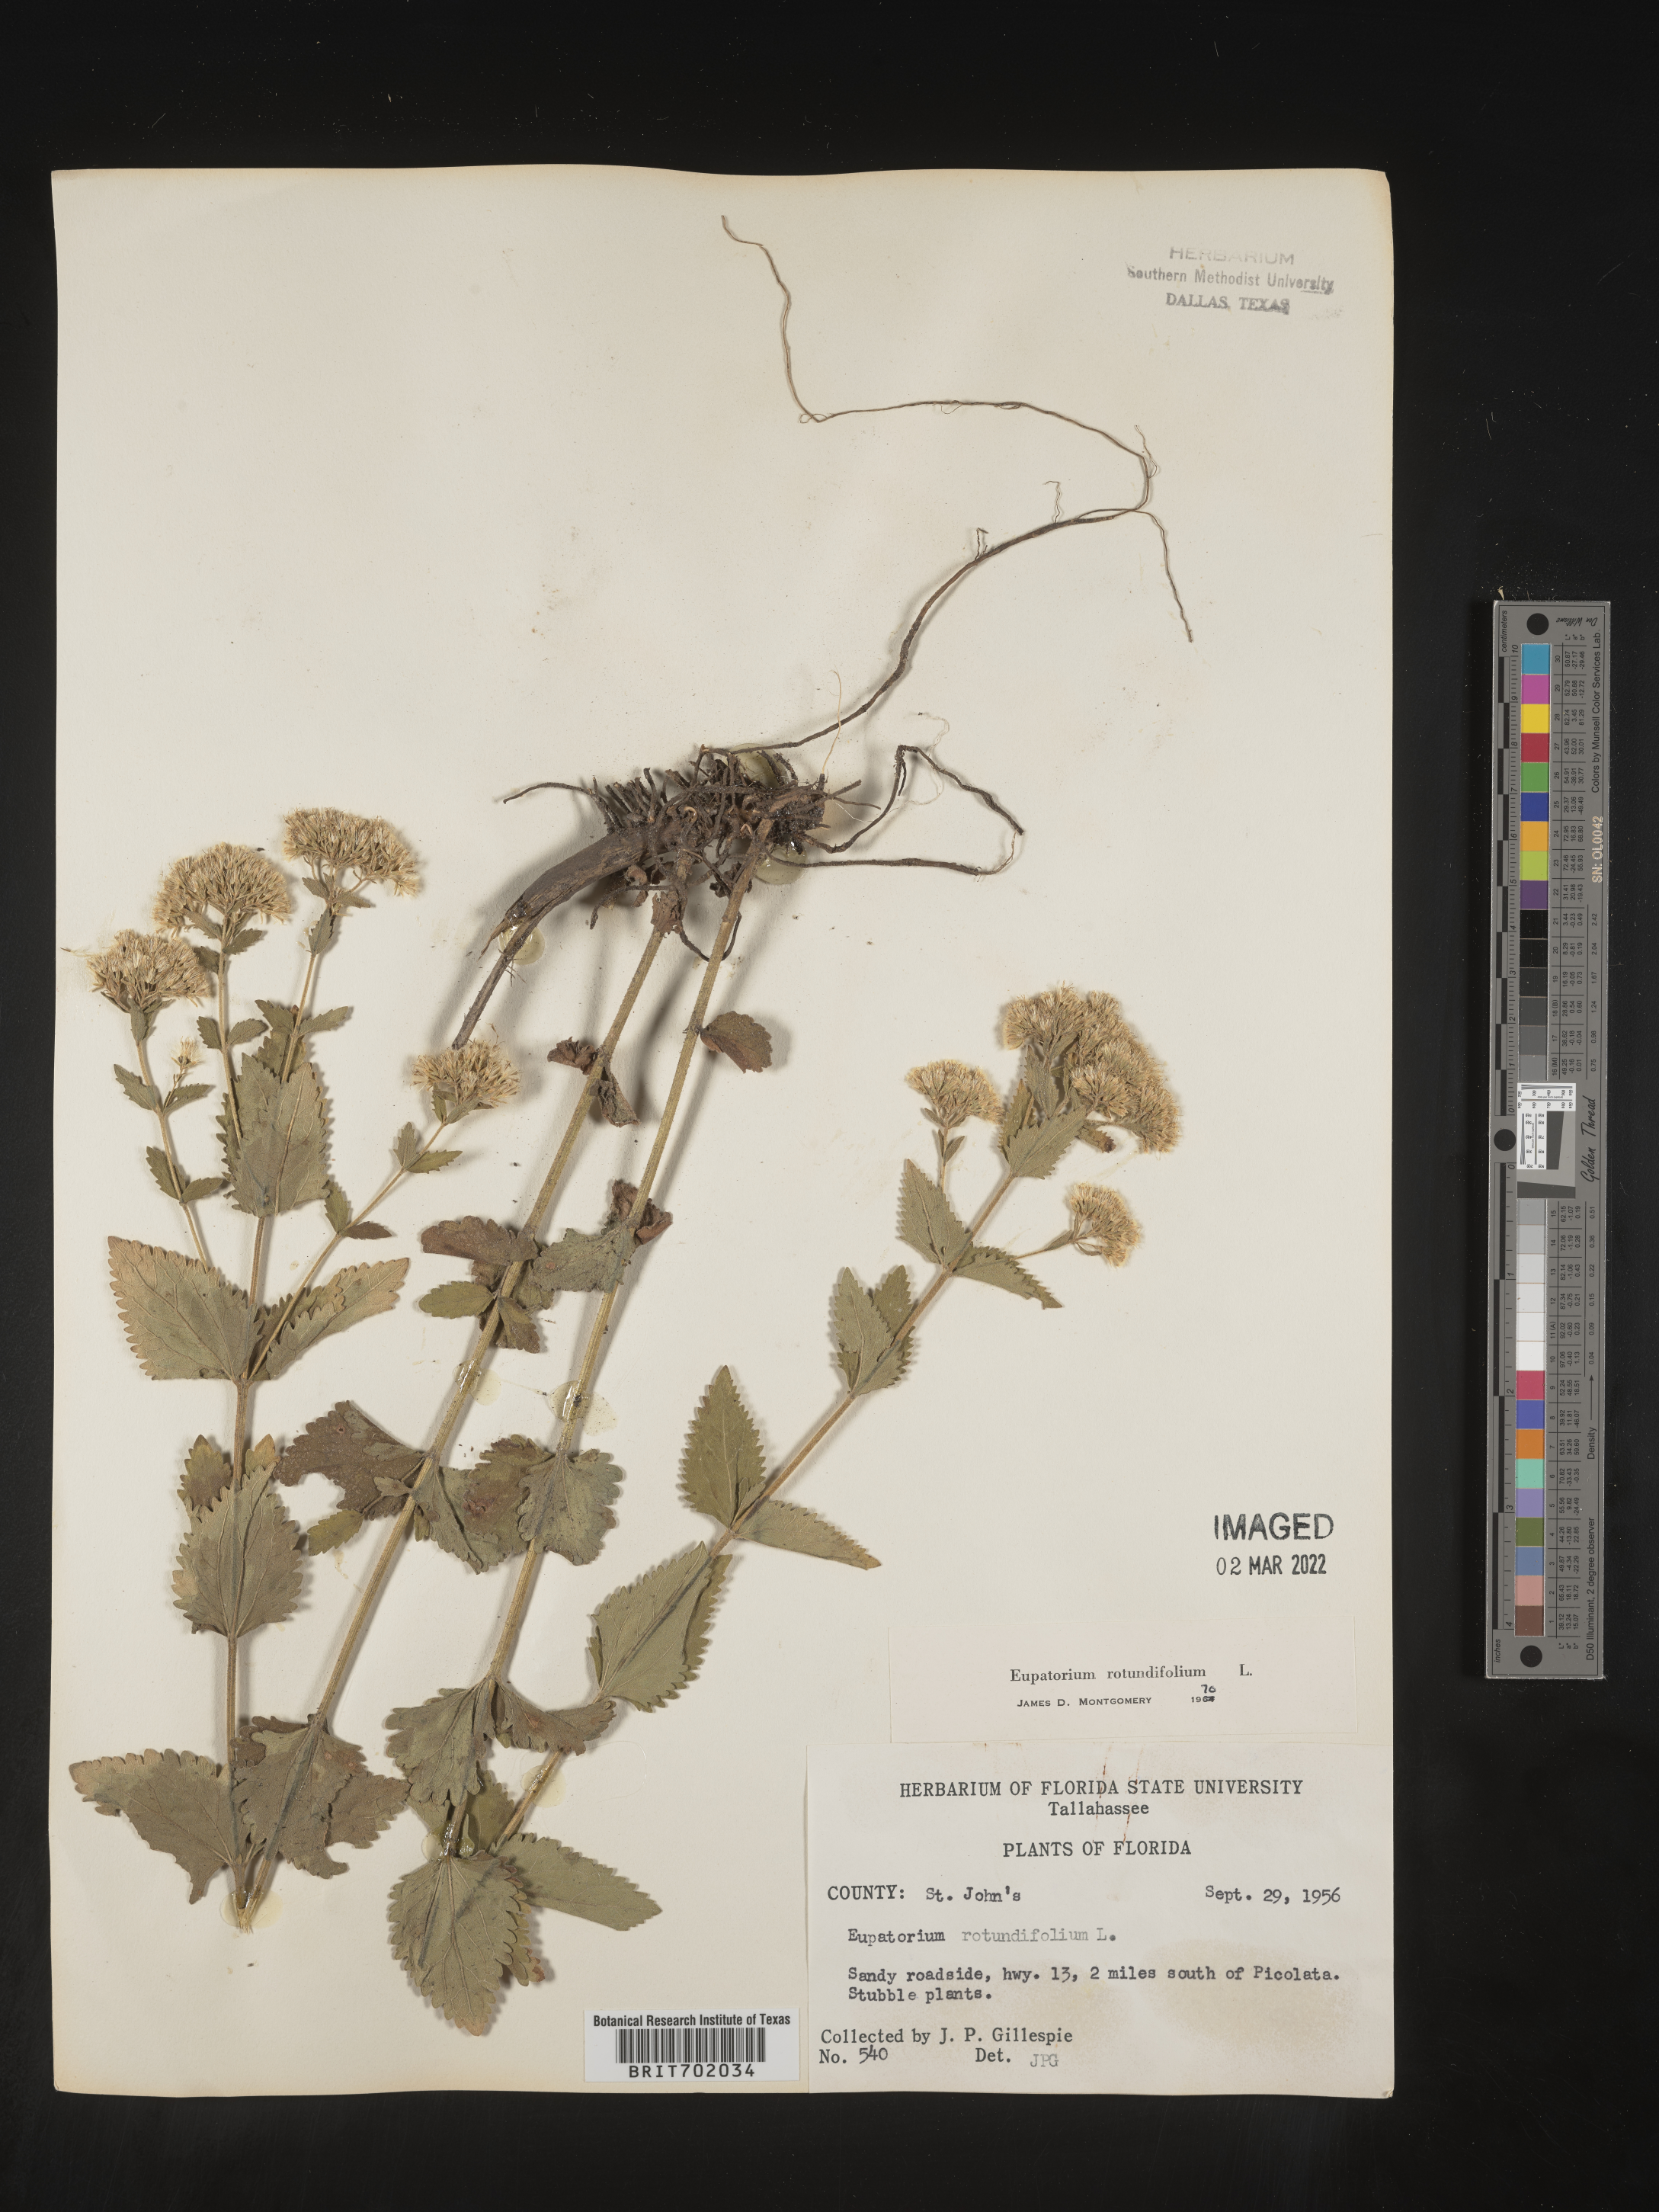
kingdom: Plantae
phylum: Tracheophyta
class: Magnoliopsida
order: Asterales
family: Asteraceae
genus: Eupatorium
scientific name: Eupatorium rotundifolium
